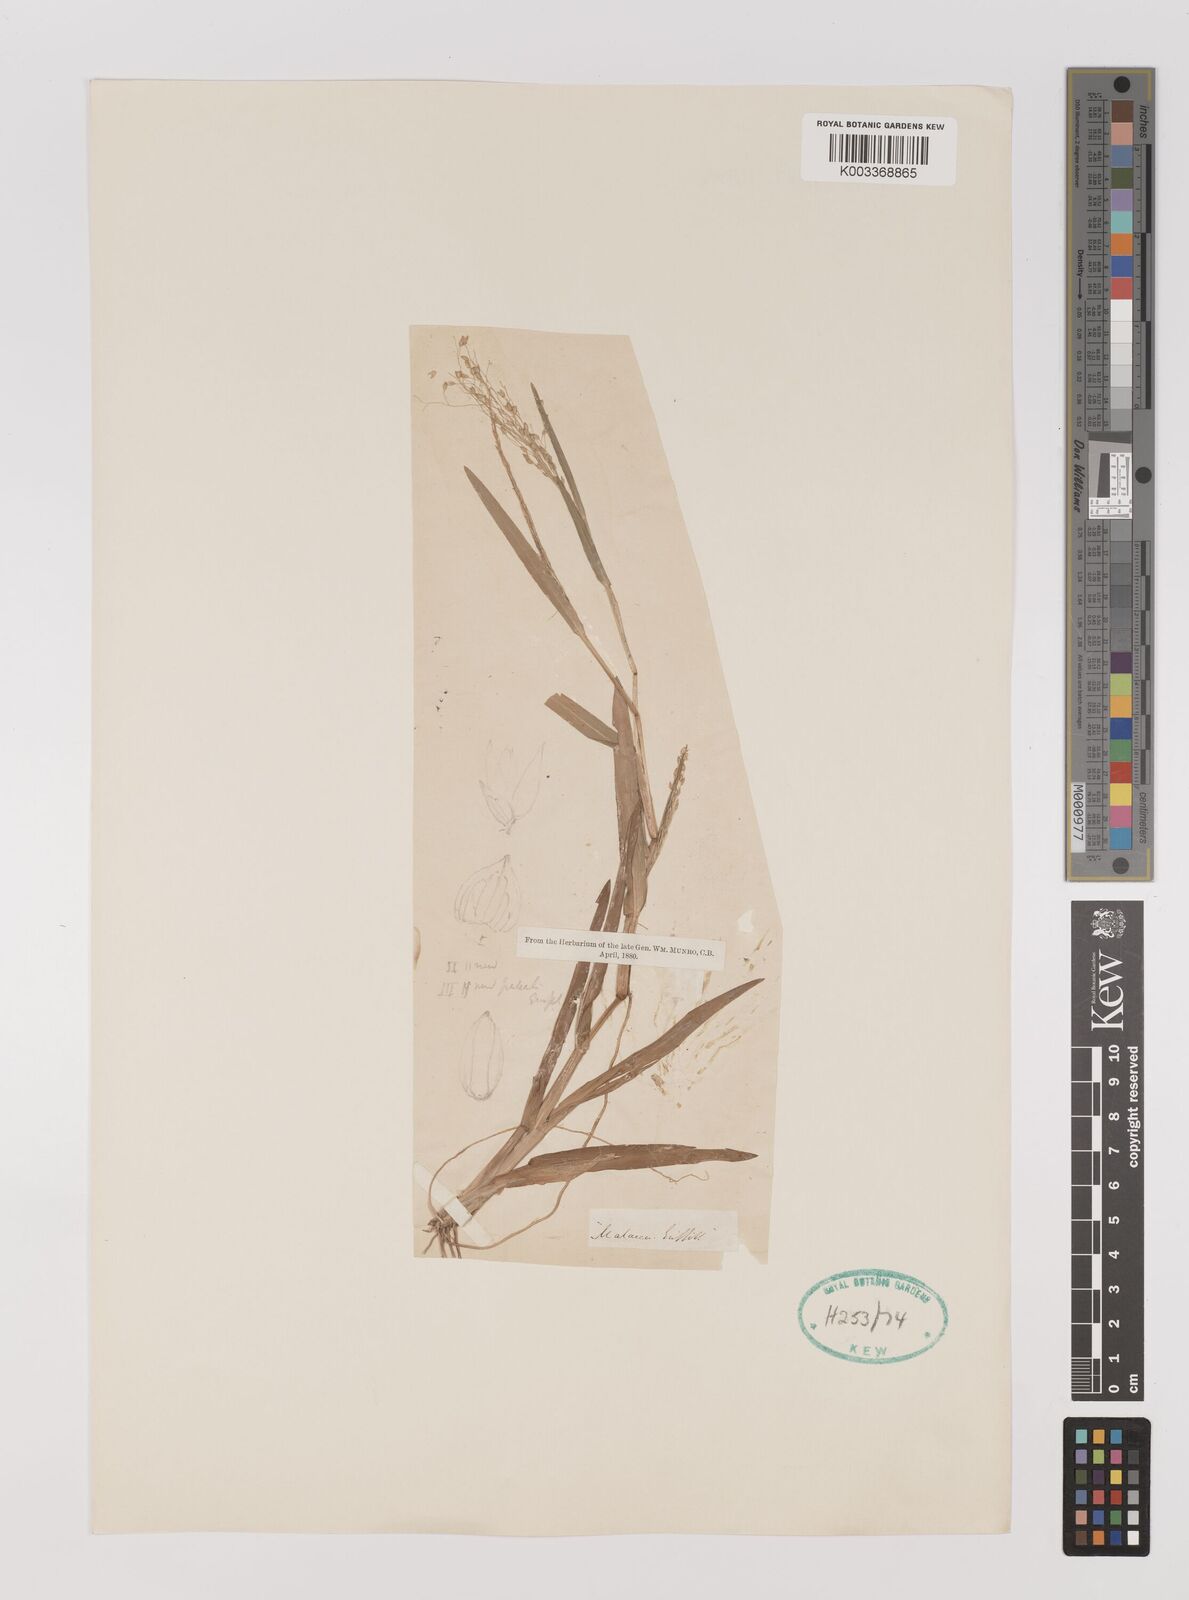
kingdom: Plantae
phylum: Tracheophyta
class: Liliopsida
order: Poales
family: Poaceae
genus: Panicum
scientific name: Panicum
